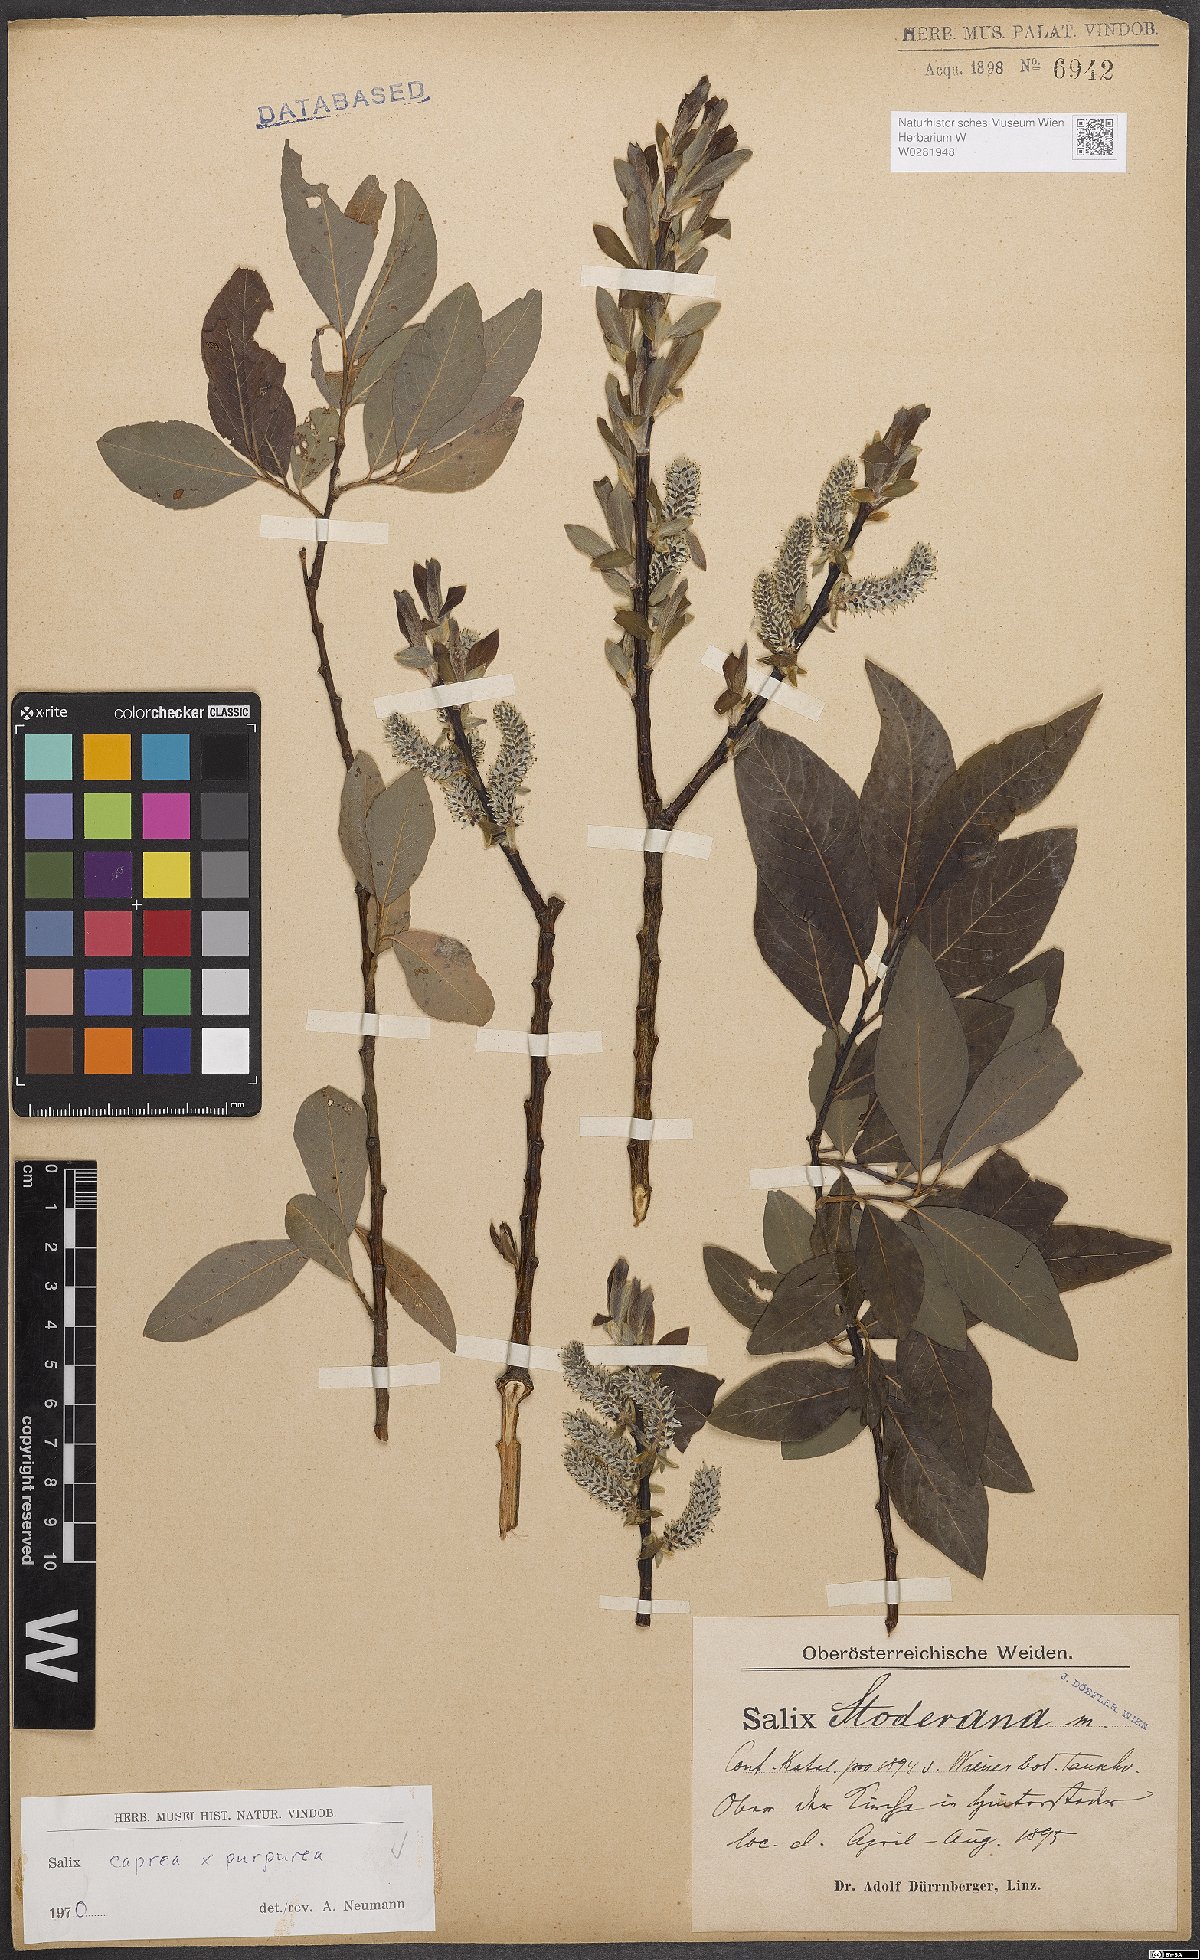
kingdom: Plantae
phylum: Tracheophyta
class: Magnoliopsida
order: Malpighiales
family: Salicaceae
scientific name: Salicaceae
